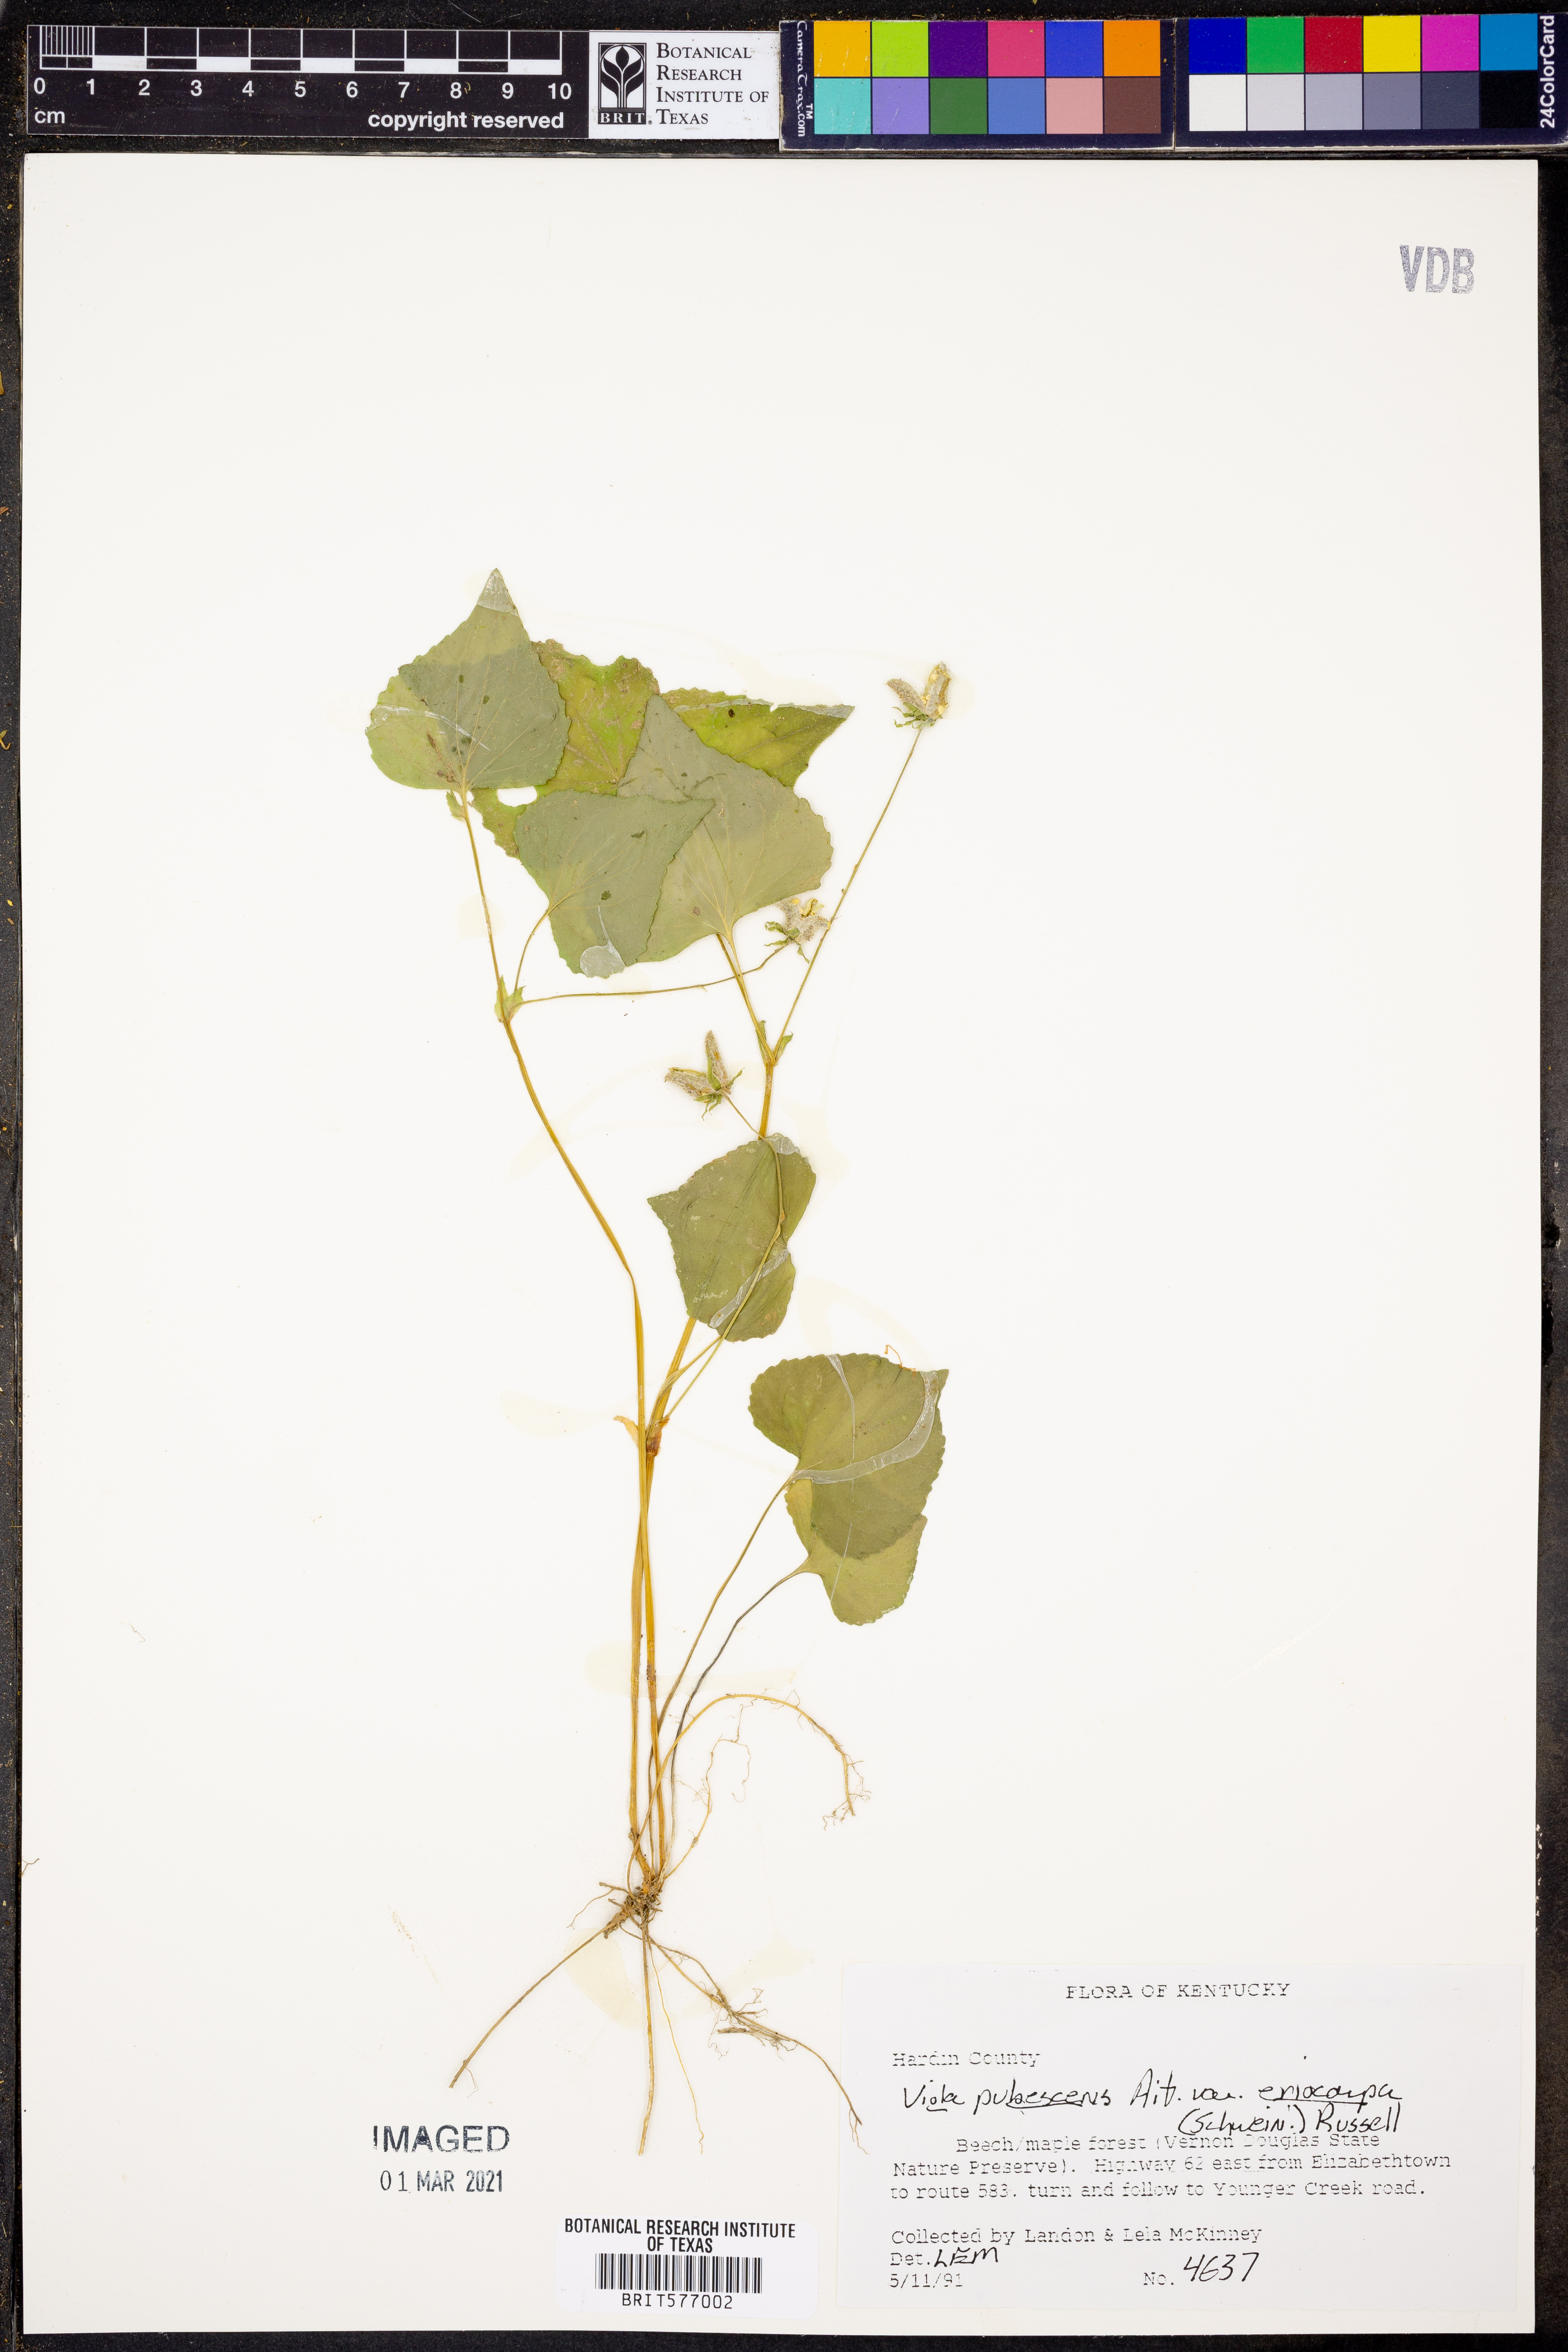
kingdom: Plantae
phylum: Tracheophyta
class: Magnoliopsida
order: Malpighiales
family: Violaceae
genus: Viola
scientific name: Viola eriocarpa
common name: Smooth yellow violet
